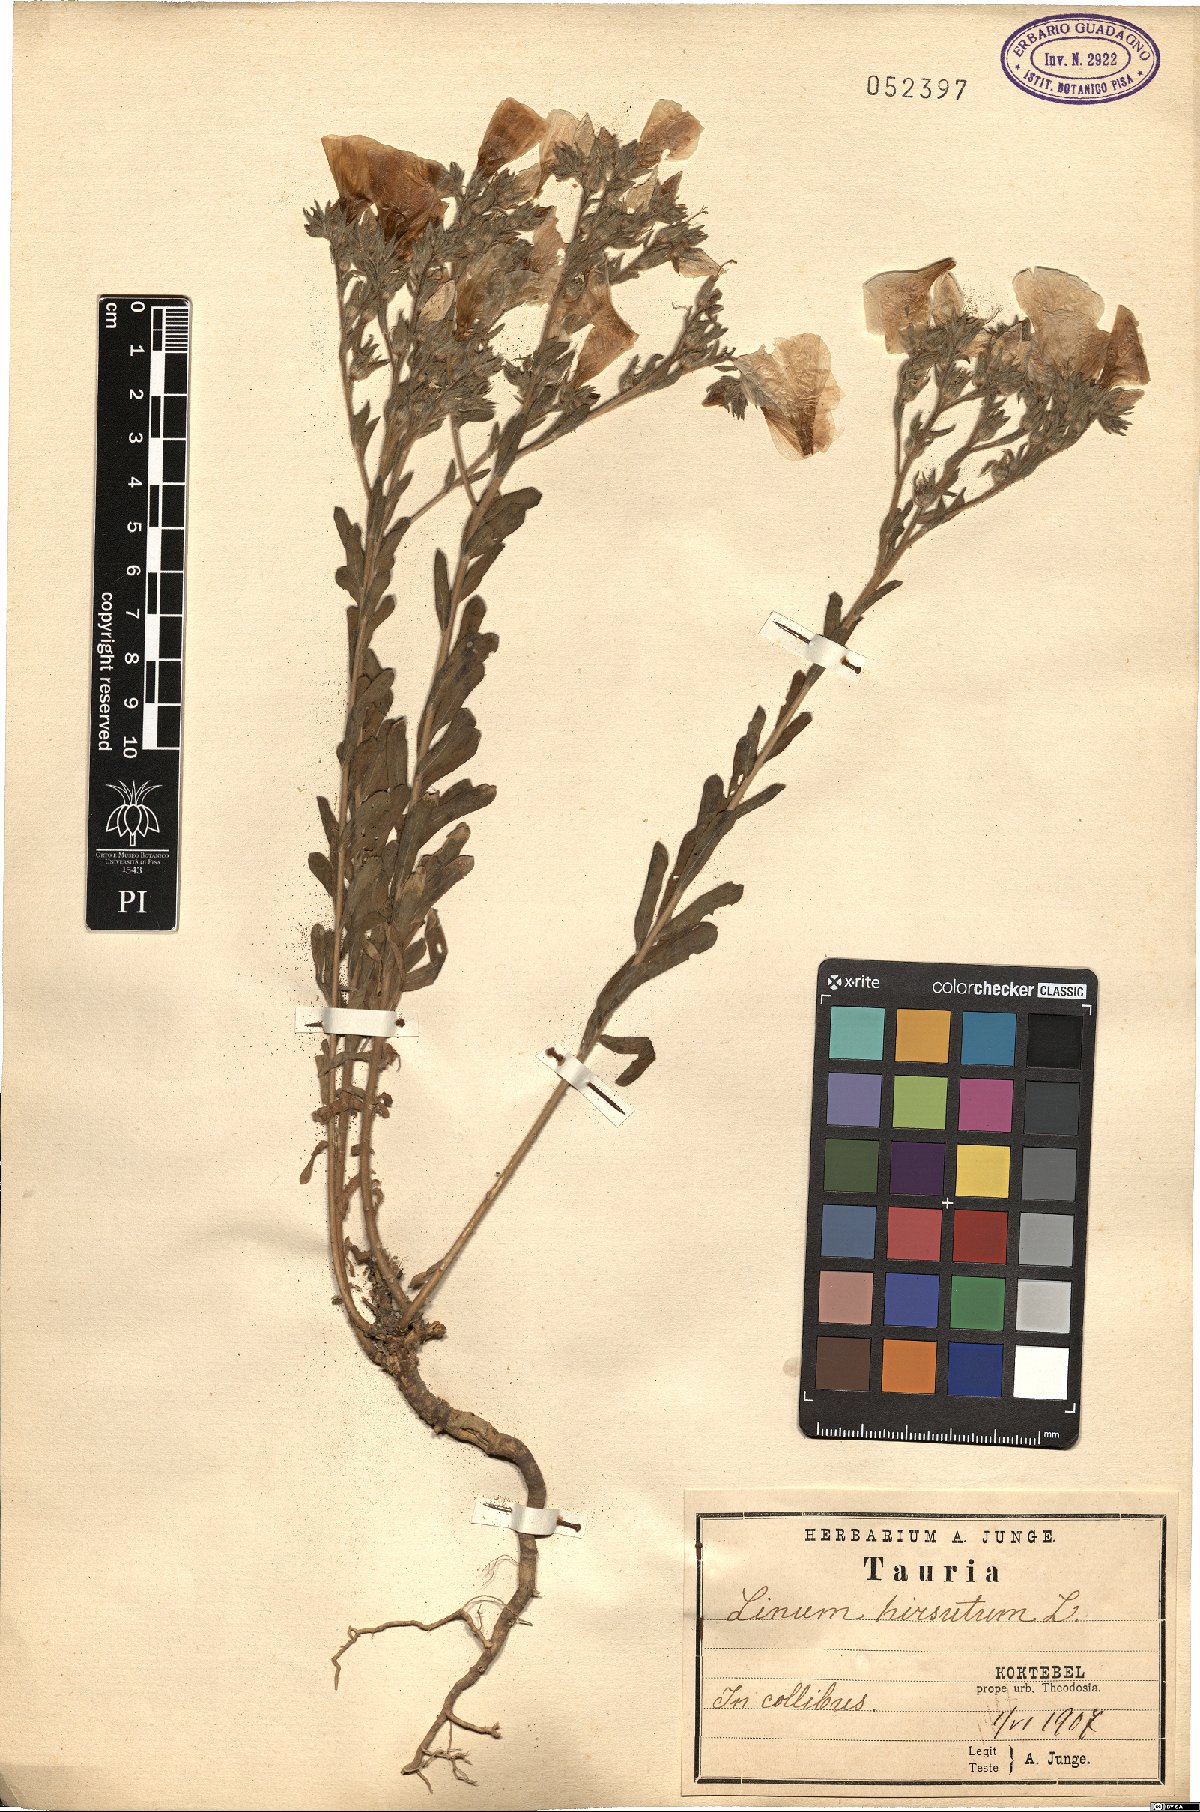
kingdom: Plantae
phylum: Tracheophyta
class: Magnoliopsida
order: Malpighiales
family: Linaceae
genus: Linum
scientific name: Linum hirsutum
